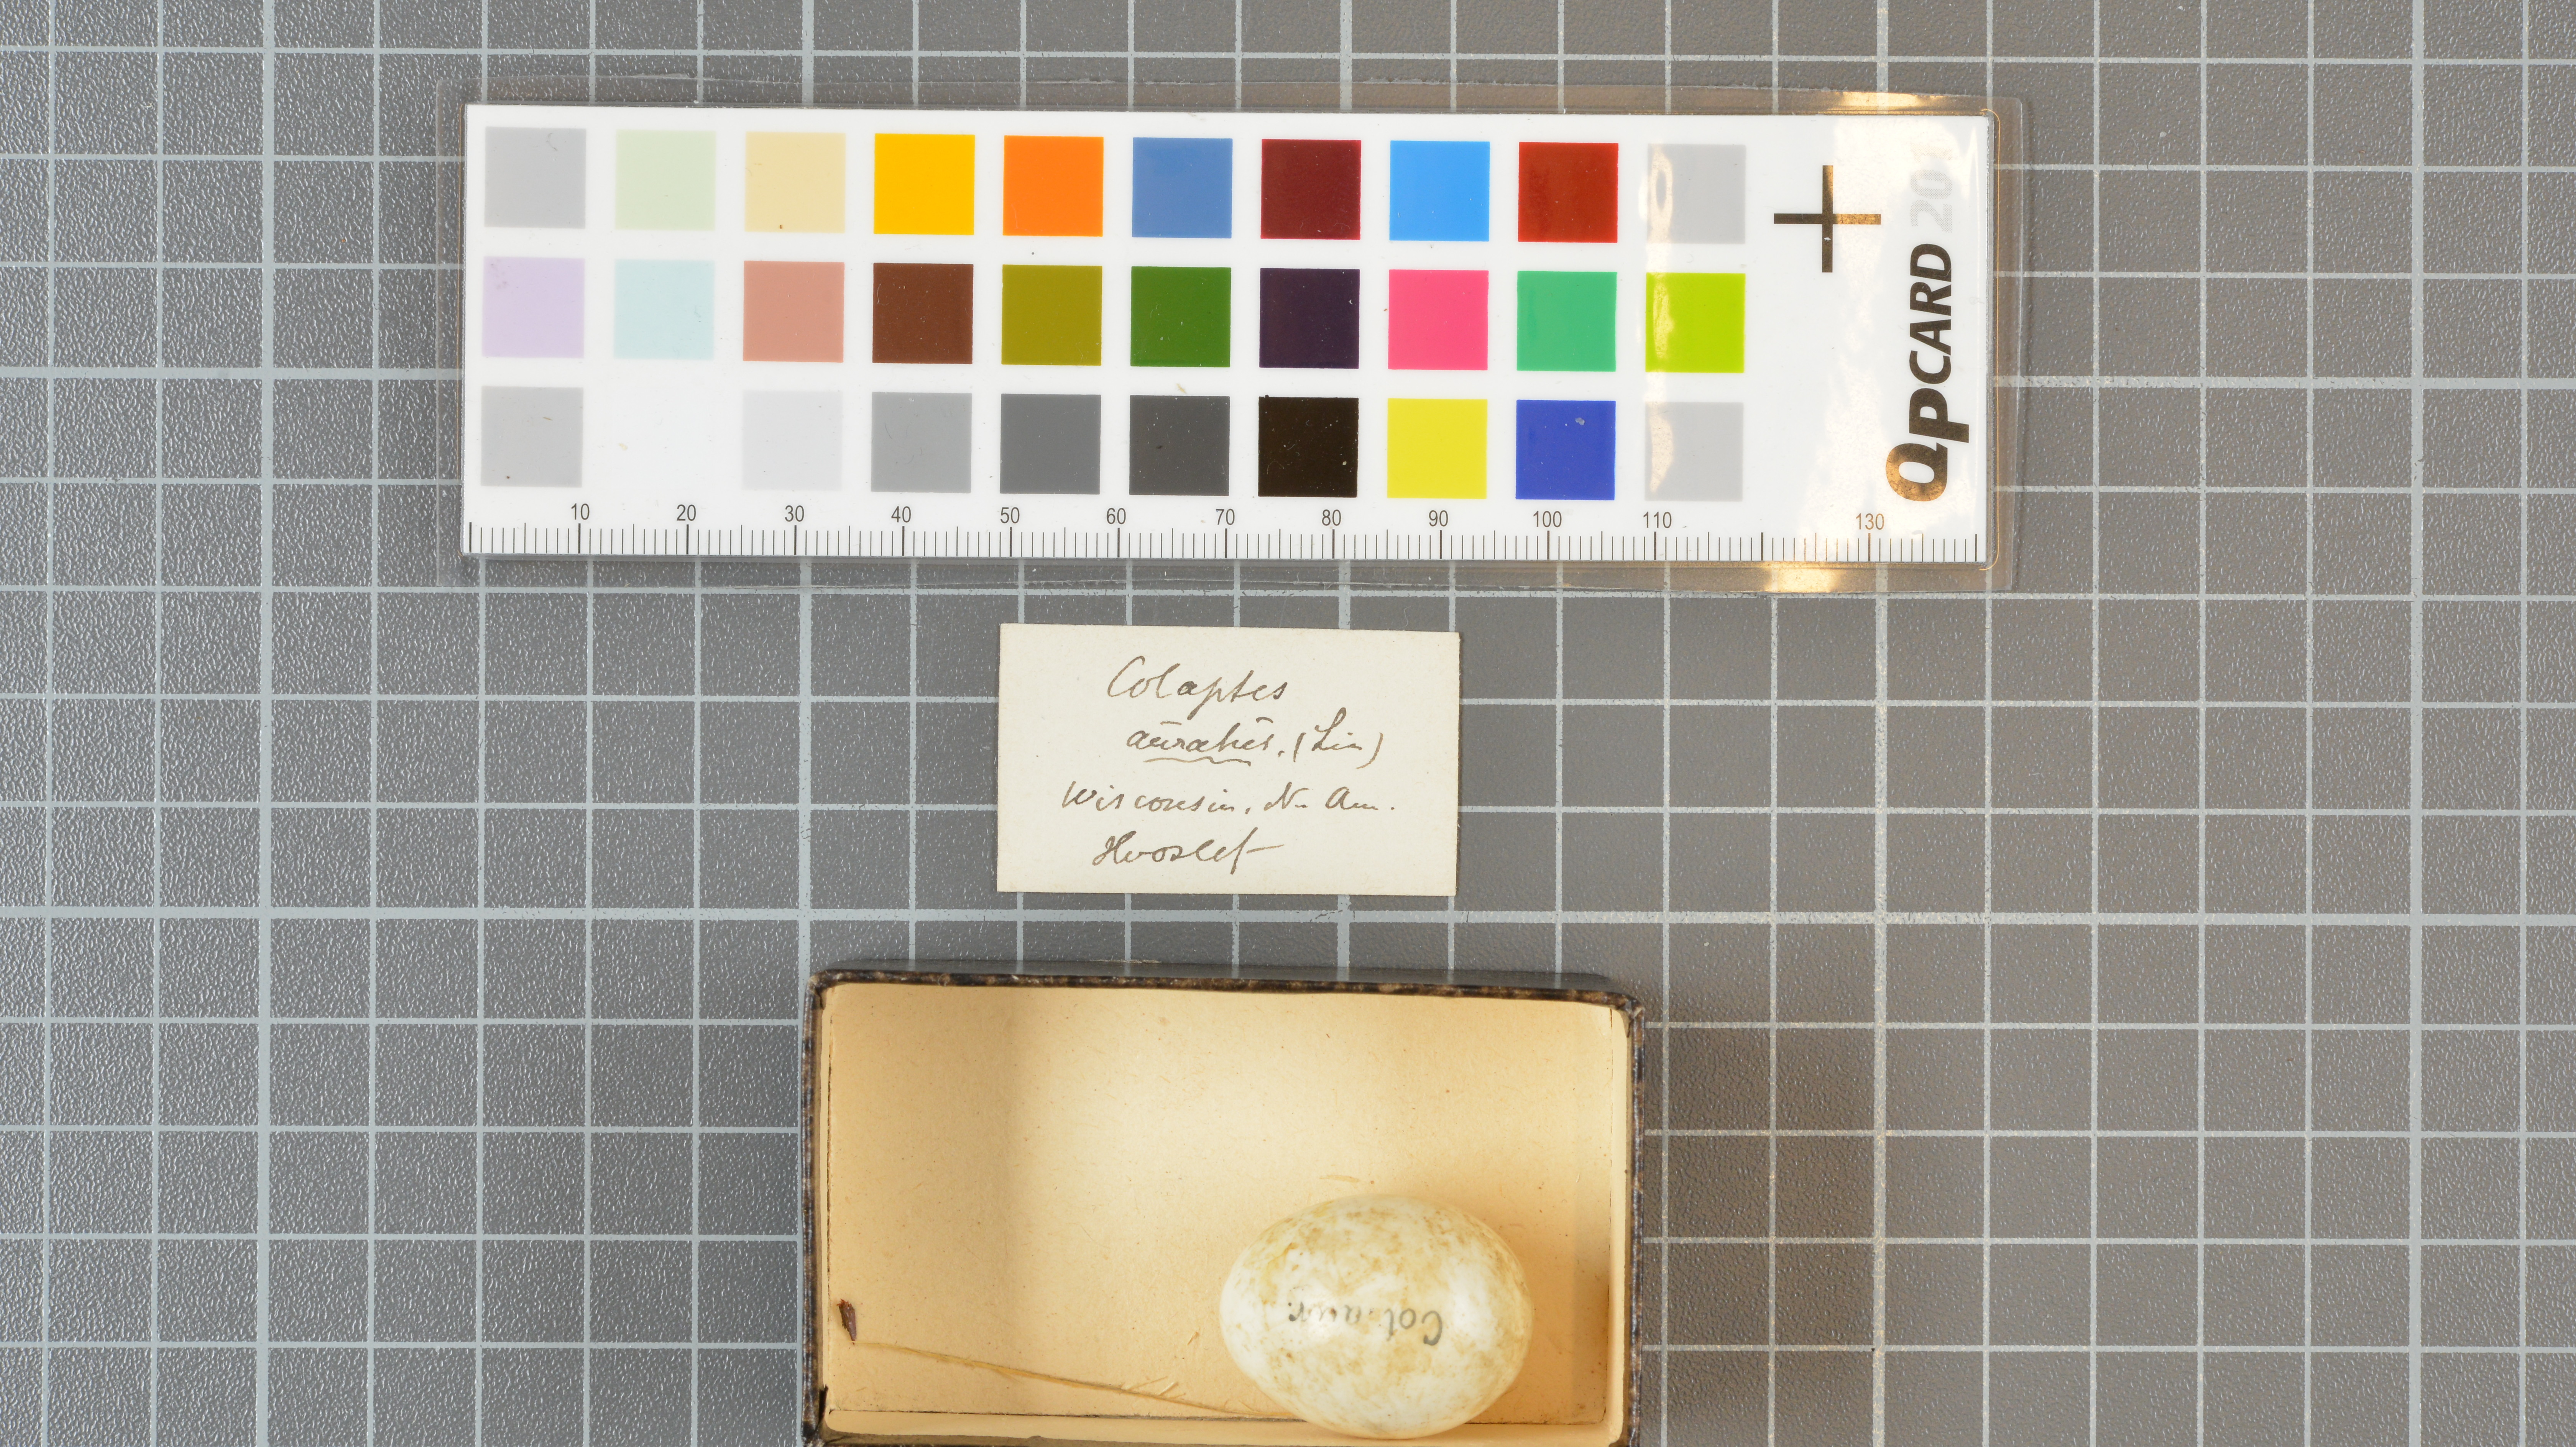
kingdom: Animalia
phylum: Chordata
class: Aves
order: Piciformes
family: Picidae
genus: Colaptes
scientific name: Colaptes auratus
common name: Northern flicker
